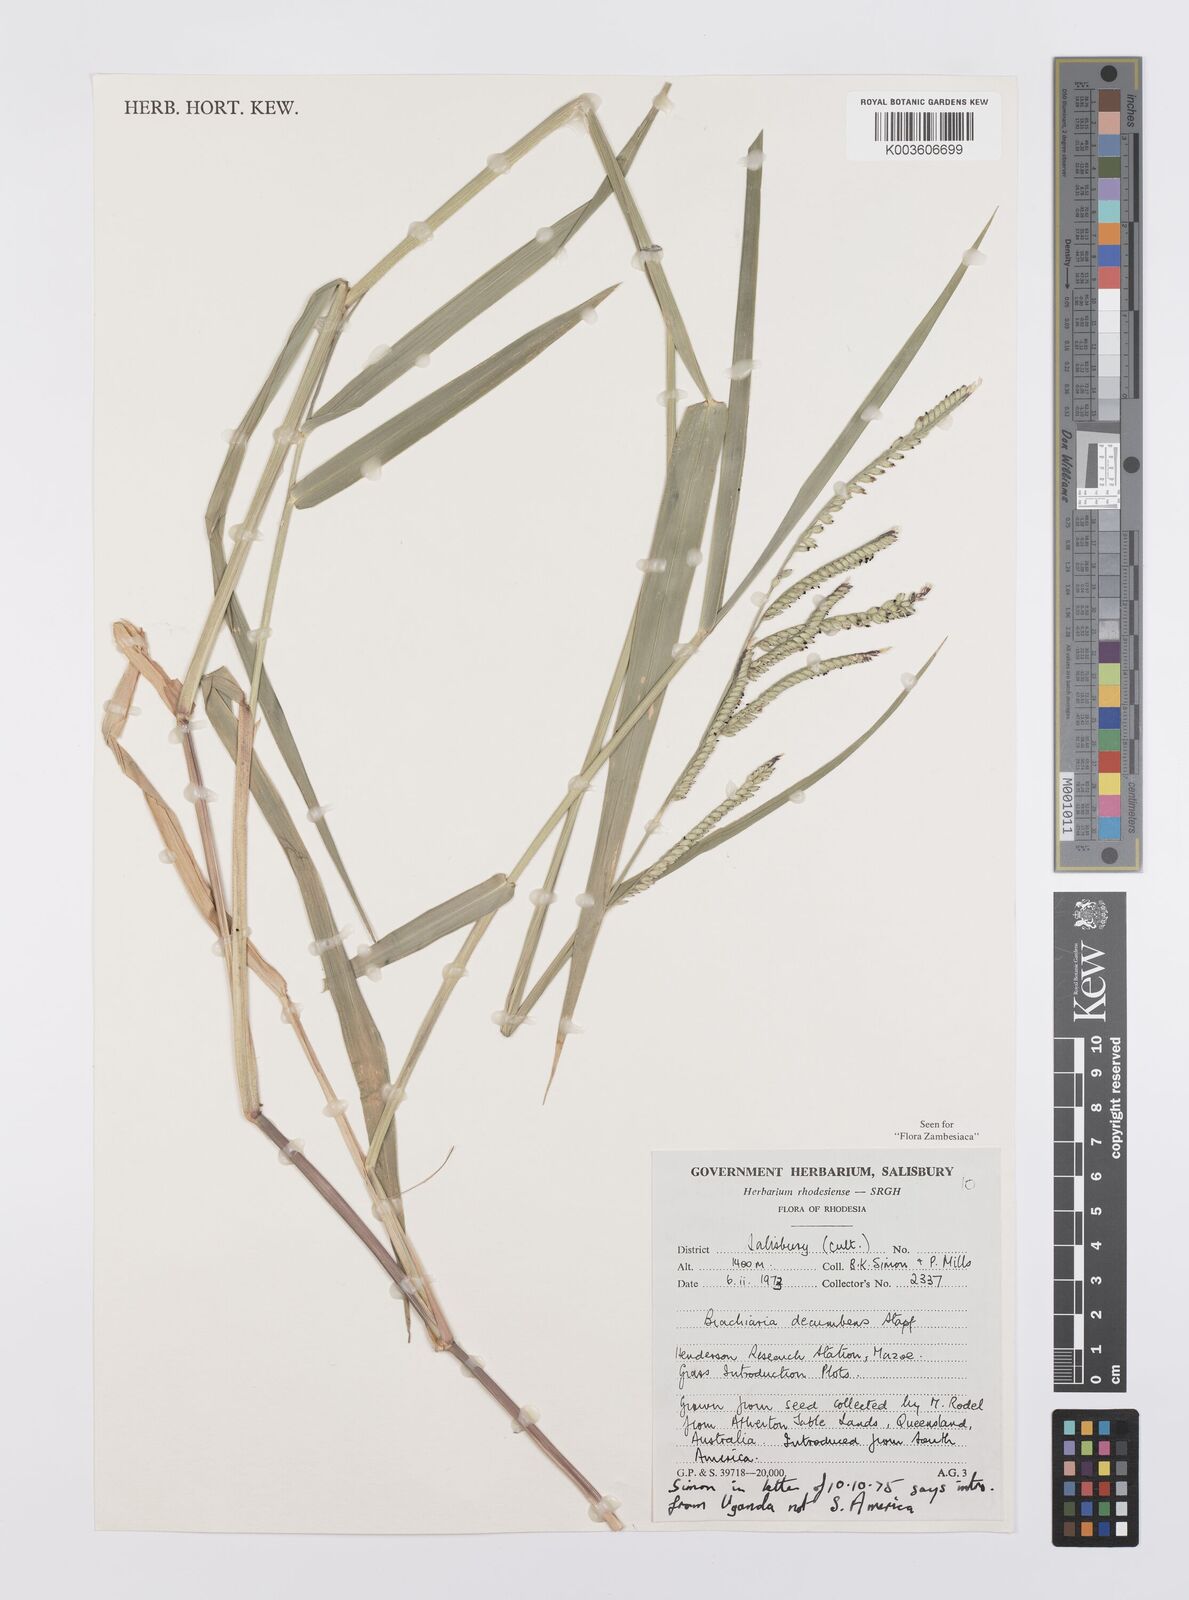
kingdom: Plantae
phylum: Tracheophyta
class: Liliopsida
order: Poales
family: Poaceae
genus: Urochloa
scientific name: Urochloa eminii
